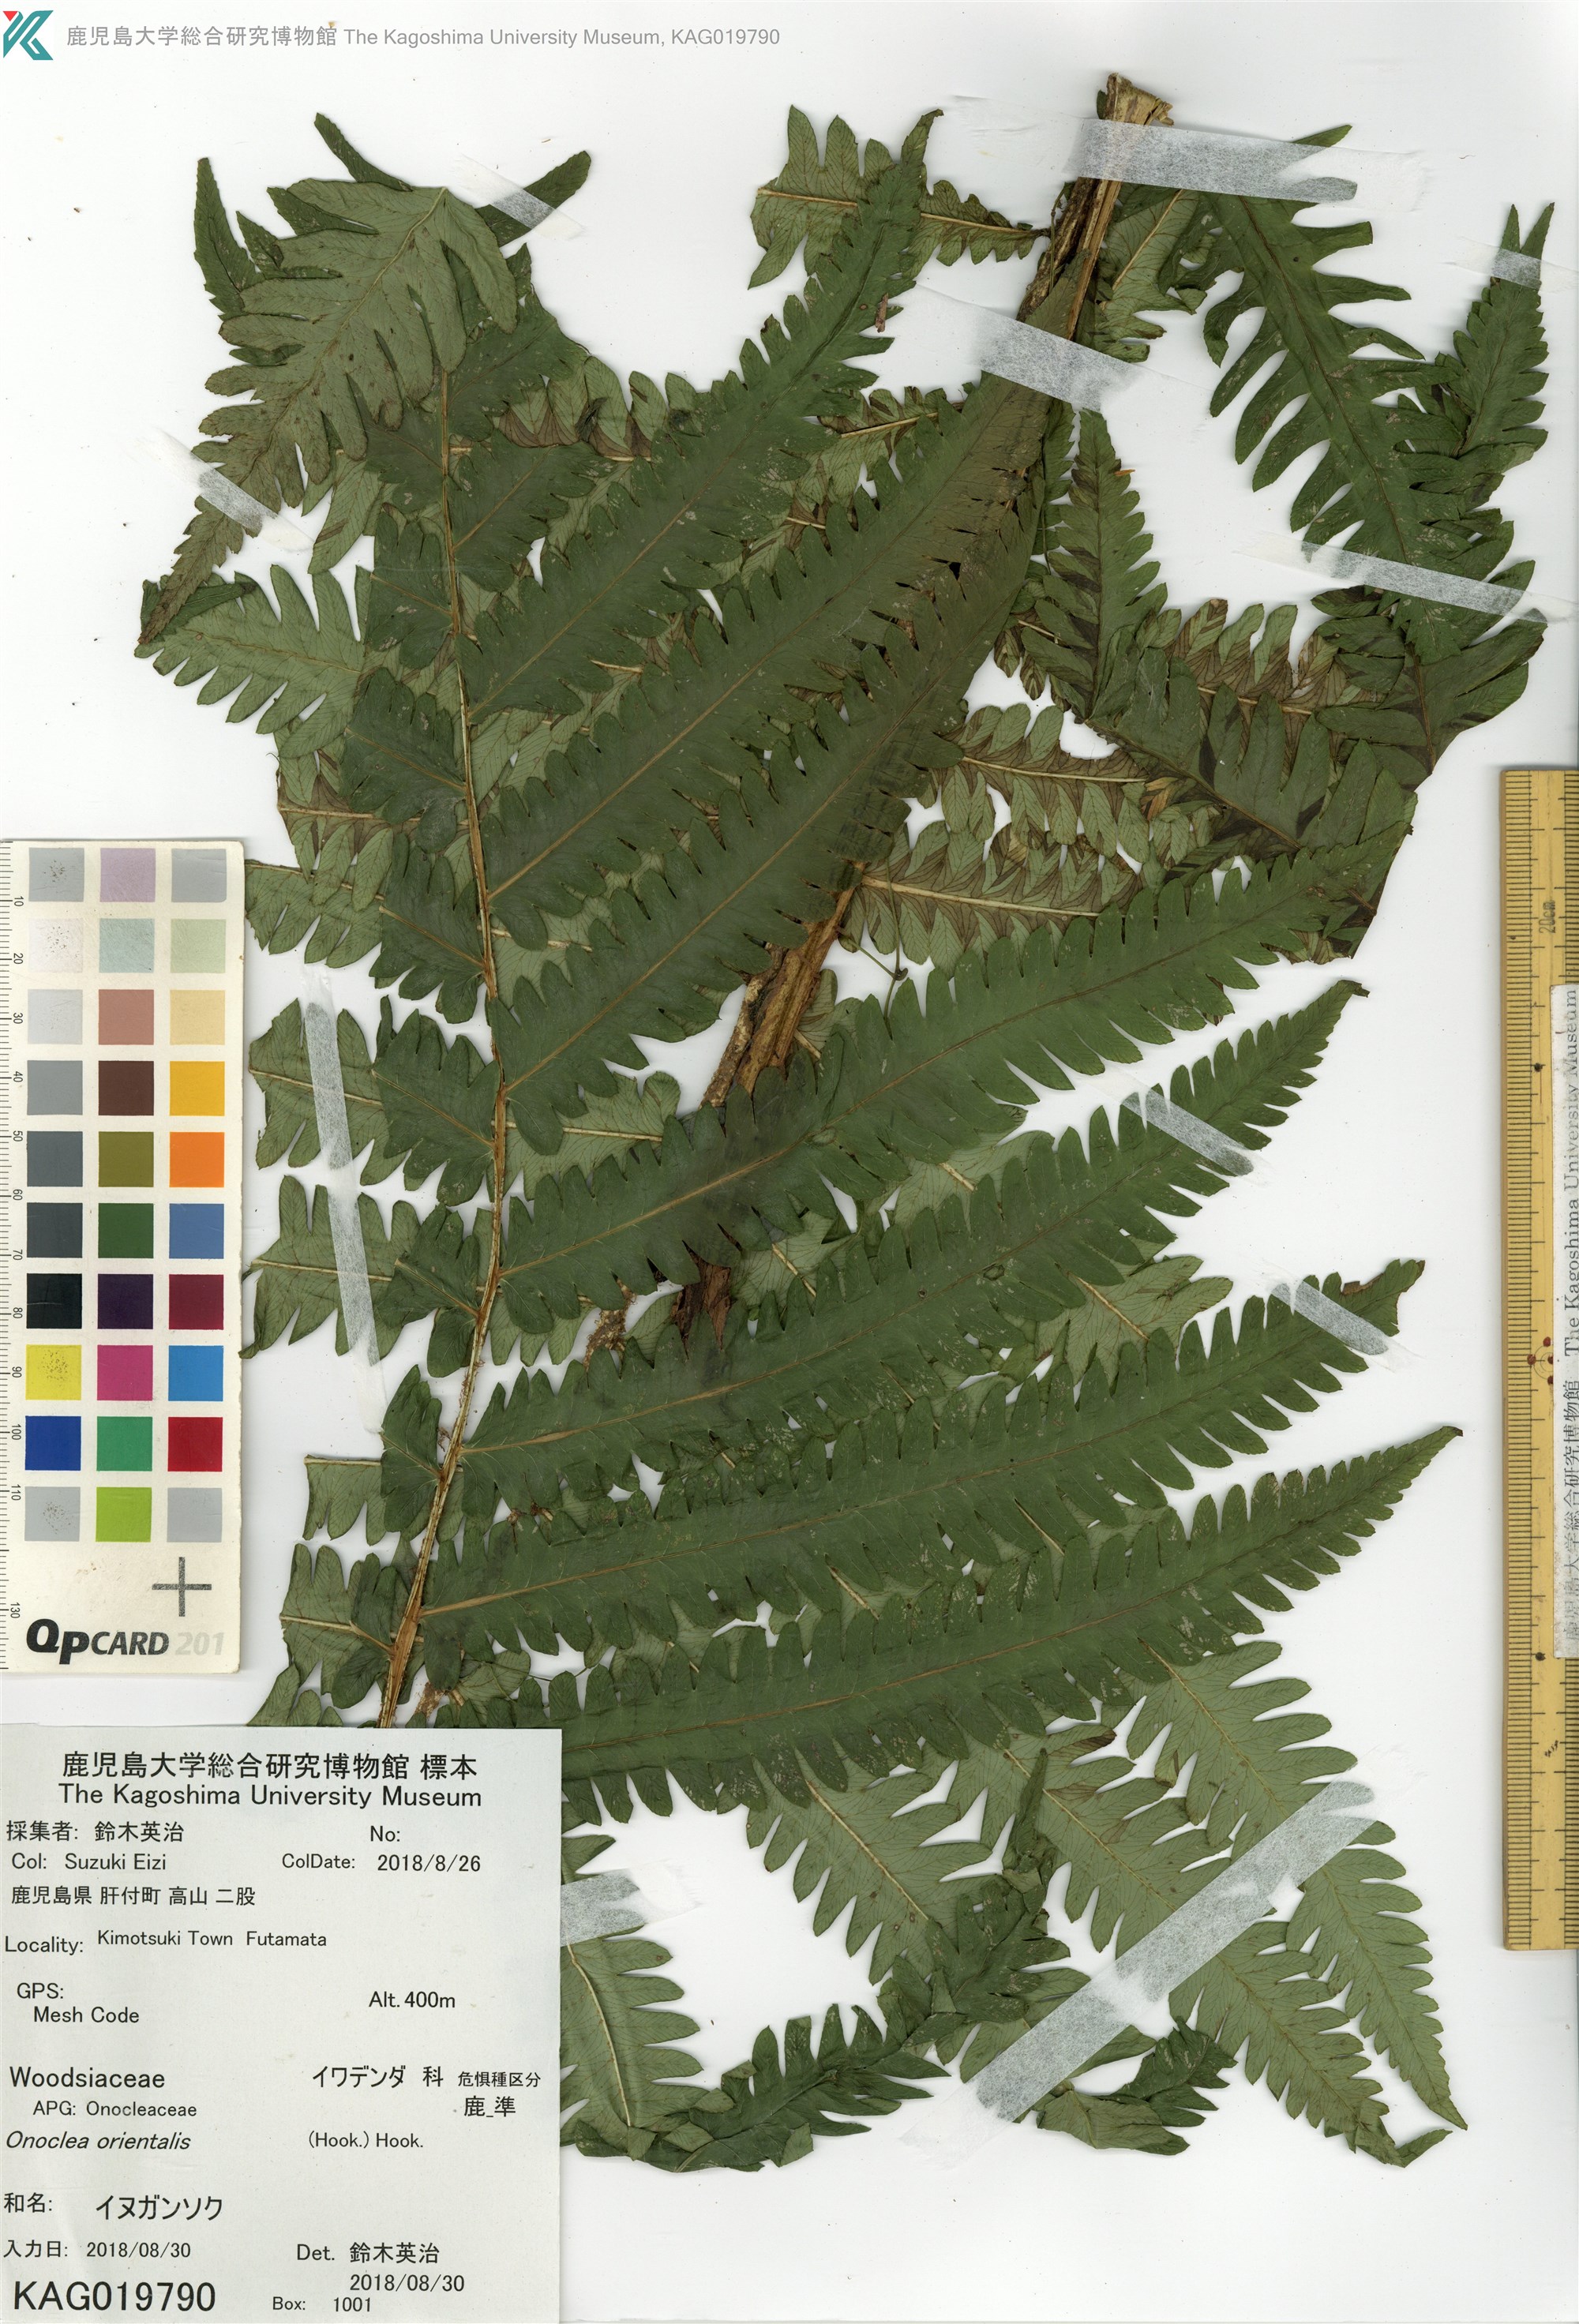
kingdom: Plantae
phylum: Tracheophyta
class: Polypodiopsida
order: Polypodiales
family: Onocleaceae
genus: Pentarhizidium
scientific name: Pentarhizidium orientale
